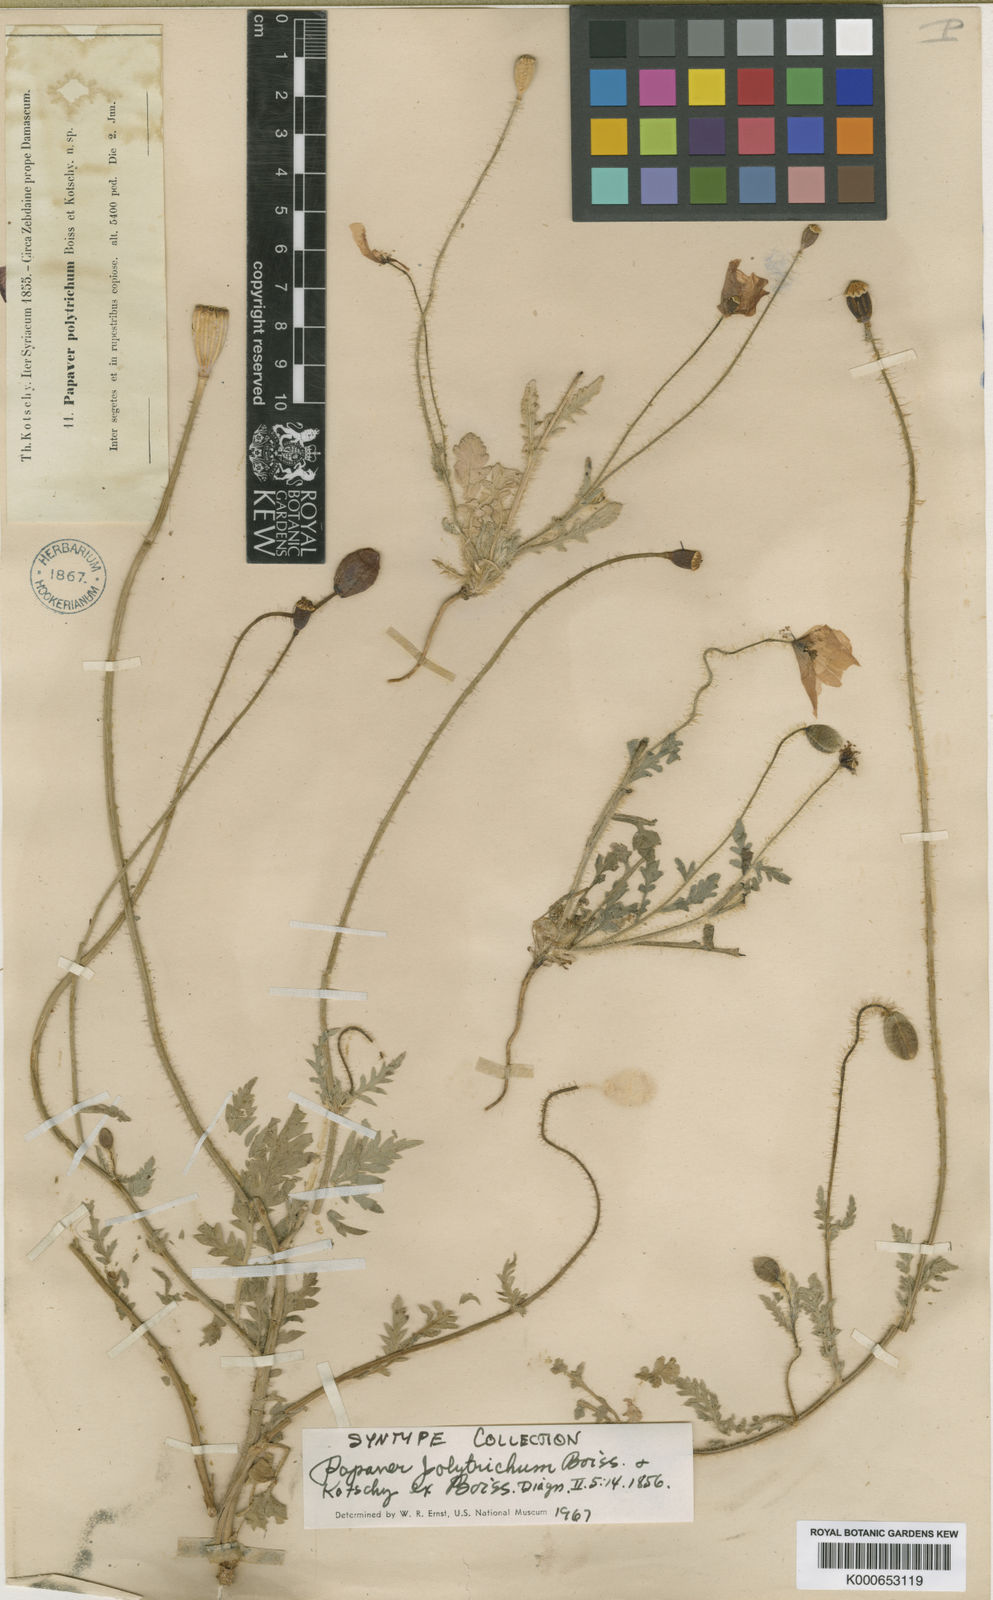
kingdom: Plantae
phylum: Tracheophyta
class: Magnoliopsida
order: Ranunculales
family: Papaveraceae
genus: Papaver
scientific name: Papaver rhoeas
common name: Corn poppy
